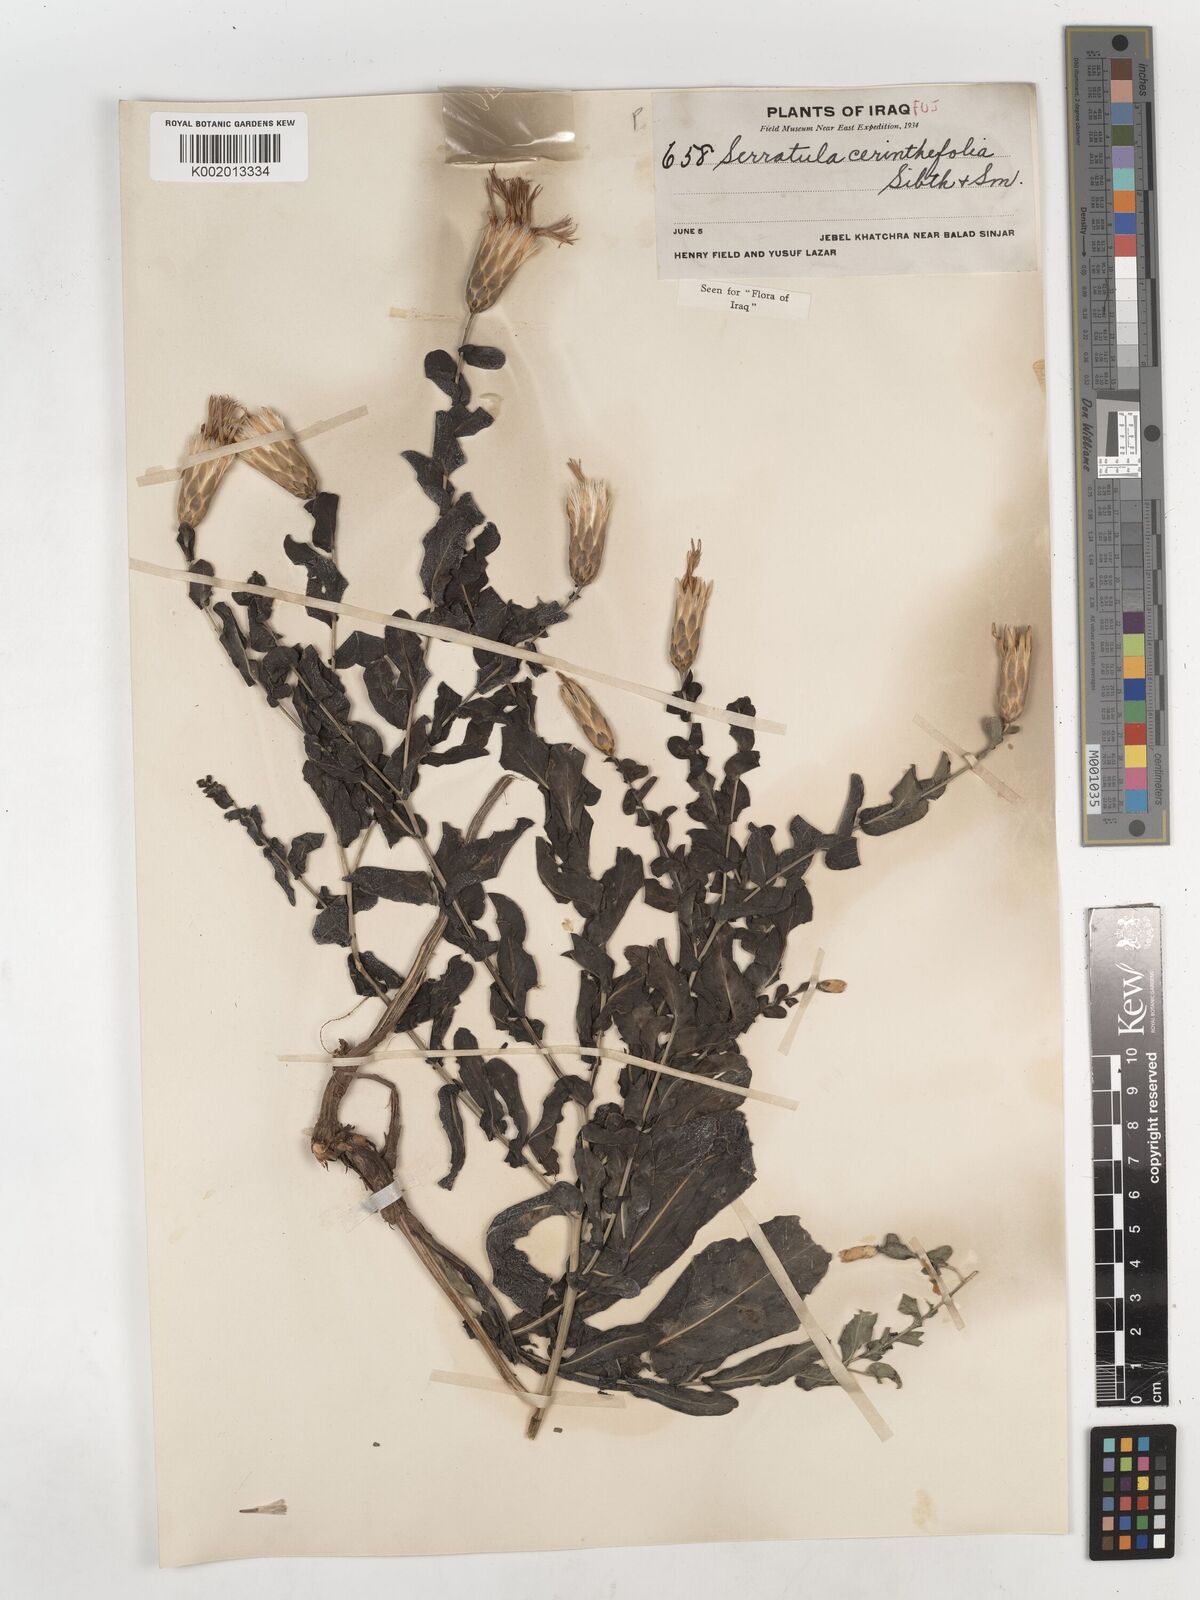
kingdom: Plantae
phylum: Tracheophyta
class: Magnoliopsida
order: Asterales
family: Asteraceae
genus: Klasea
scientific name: Klasea cerinthifolia
